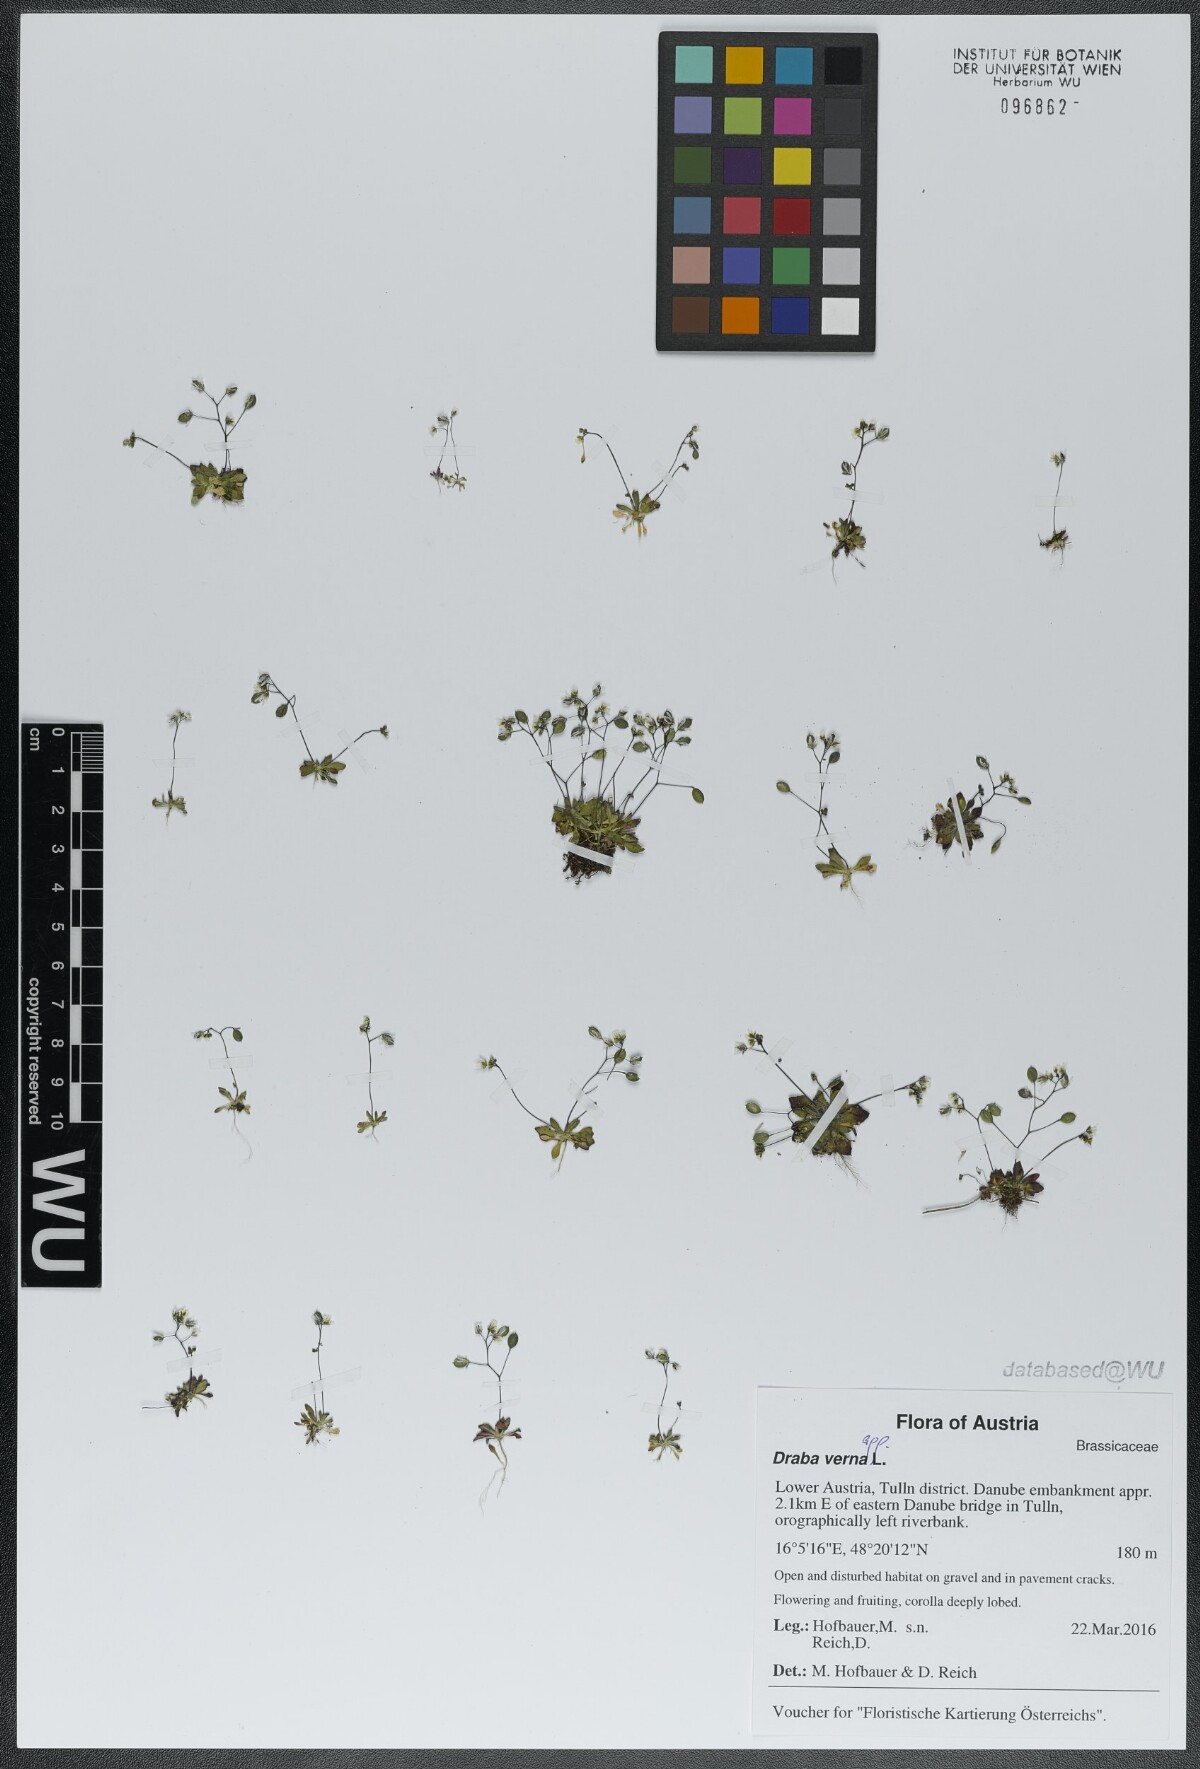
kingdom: Plantae
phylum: Tracheophyta
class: Magnoliopsida
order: Brassicales
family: Brassicaceae
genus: Draba
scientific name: Draba verna
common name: Spring draba
